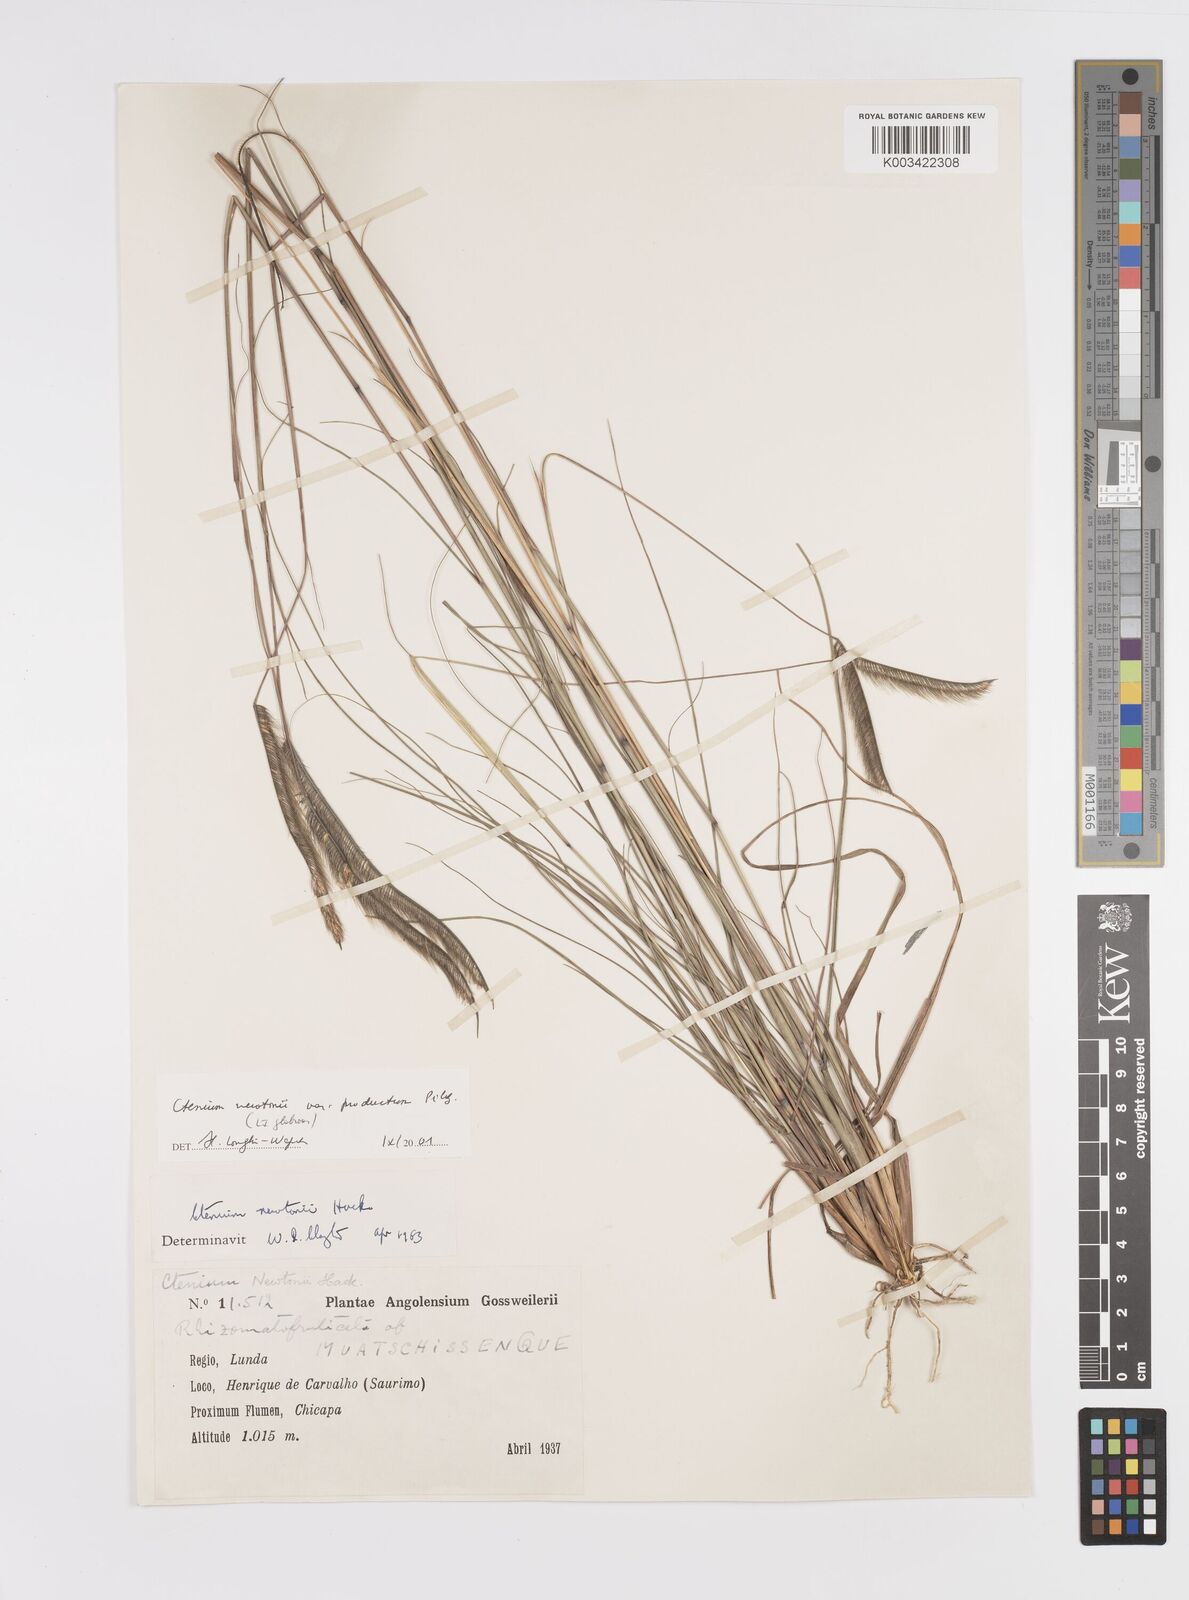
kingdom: Plantae
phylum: Tracheophyta
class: Liliopsida
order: Poales
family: Poaceae
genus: Ctenium
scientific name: Ctenium newtonii
